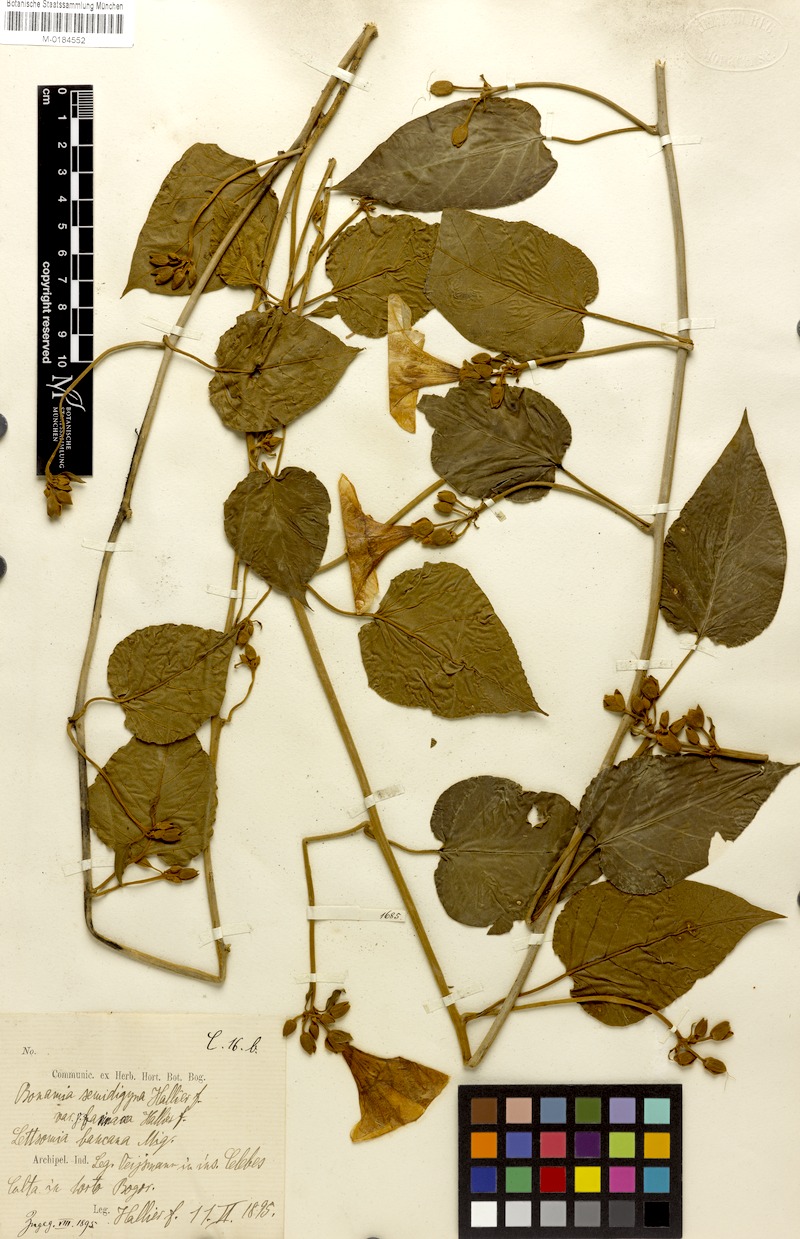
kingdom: Plantae
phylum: Tracheophyta
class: Magnoliopsida
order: Solanales
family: Convolvulaceae
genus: Bonamia
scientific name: Bonamia semidigyna
